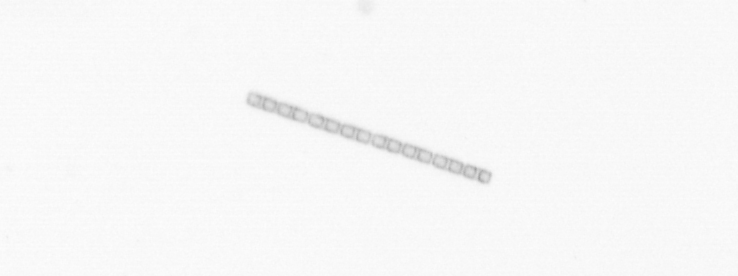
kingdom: Chromista
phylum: Ochrophyta
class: Bacillariophyceae
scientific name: Bacillariophyceae
